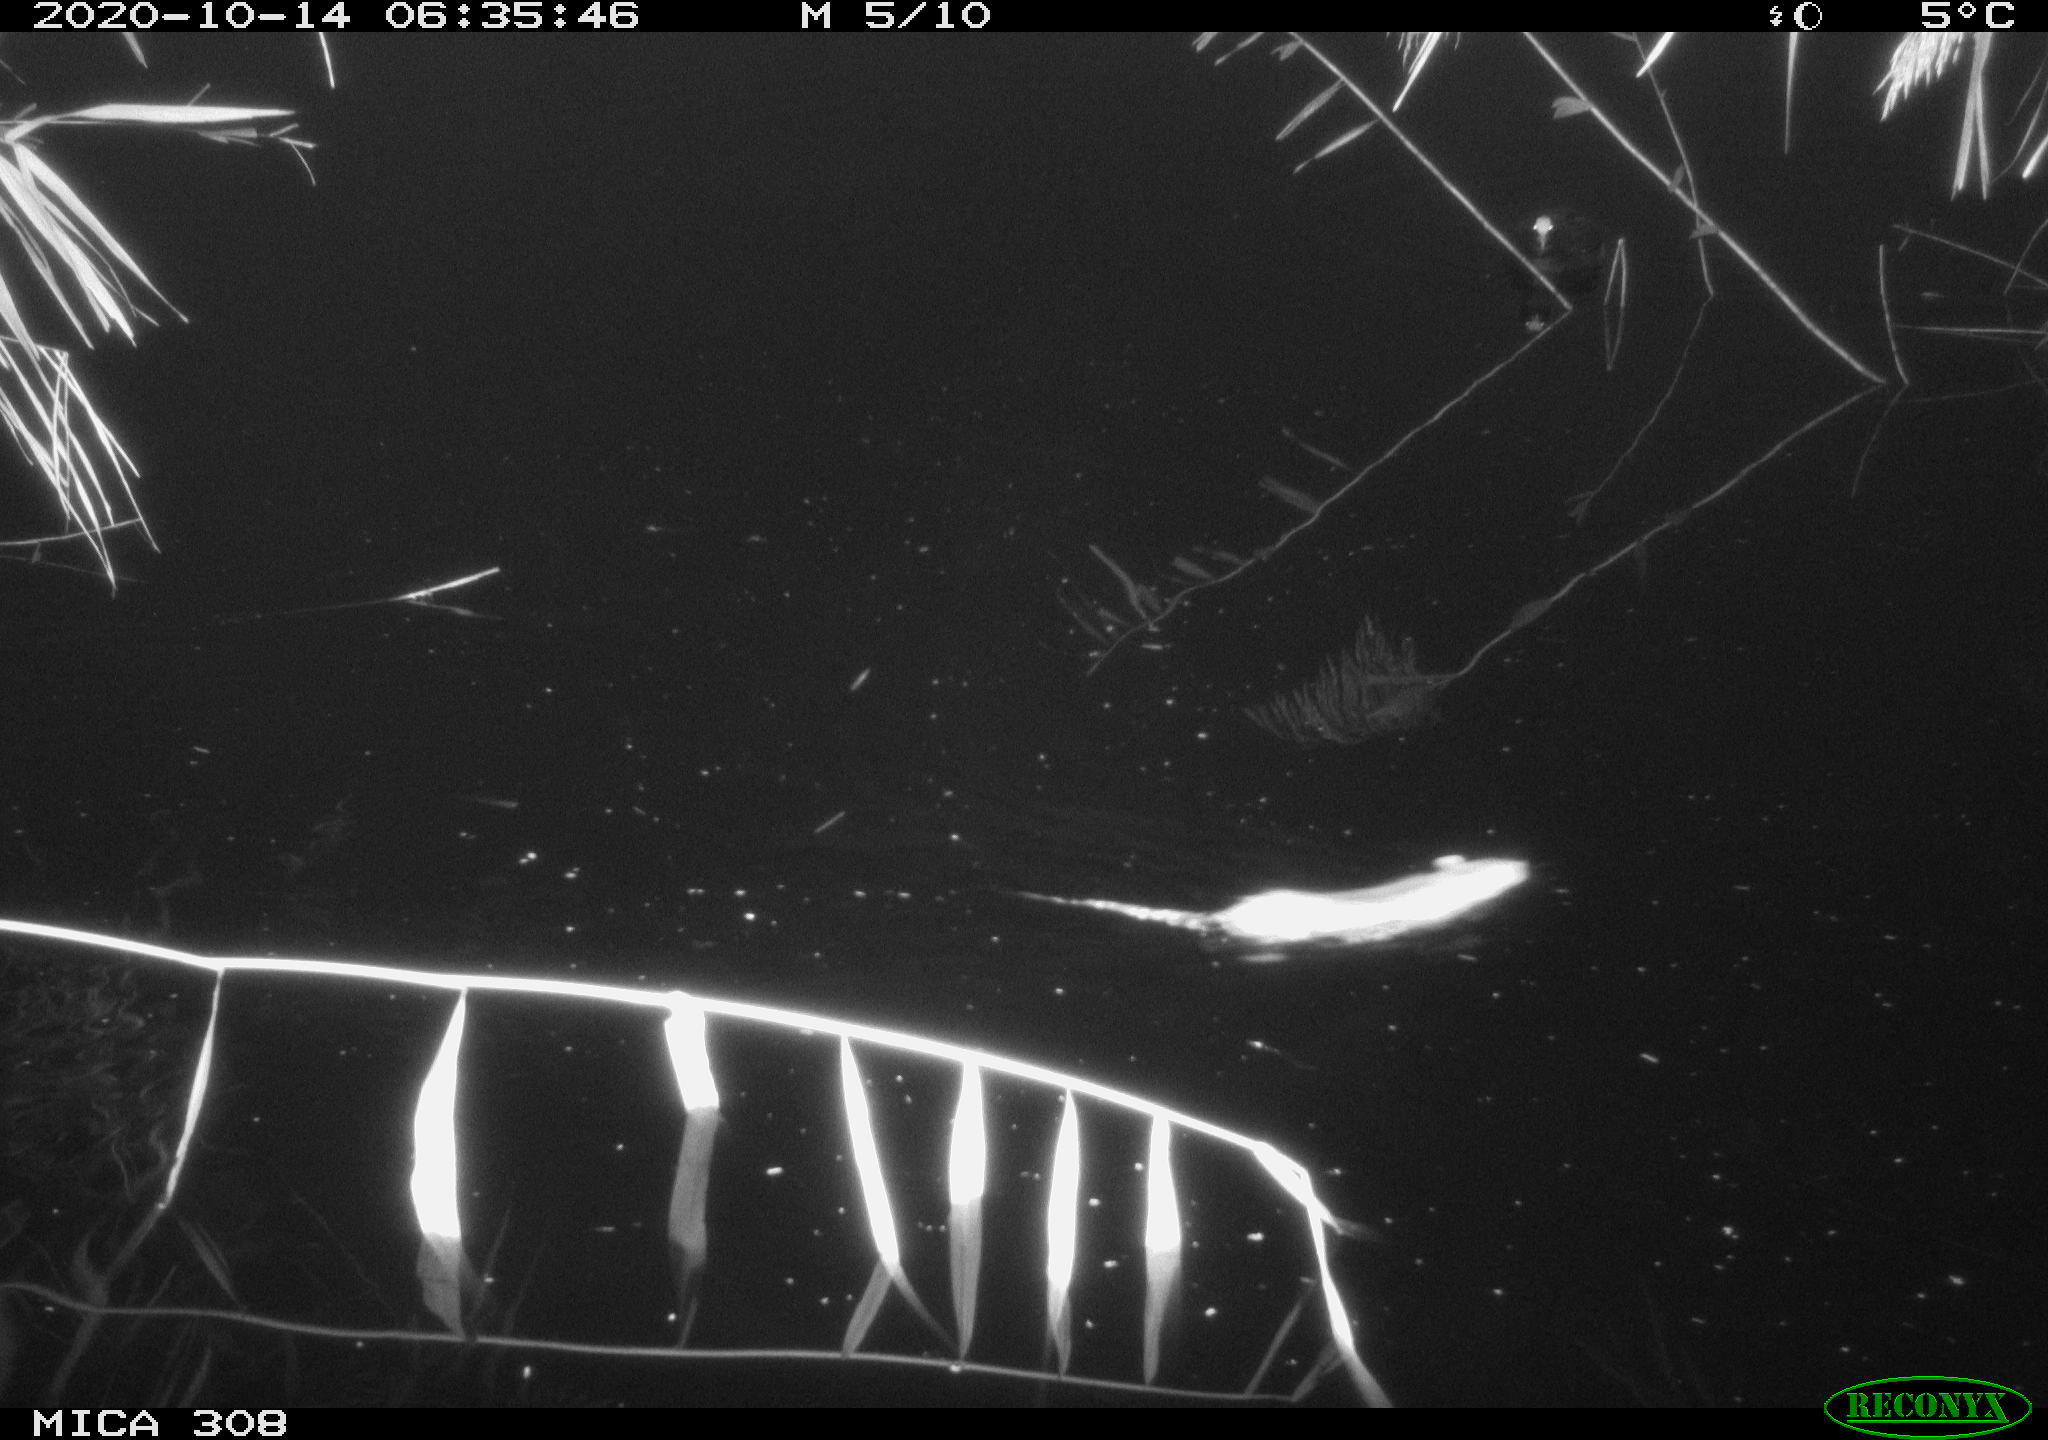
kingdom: Animalia
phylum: Chordata
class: Mammalia
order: Rodentia
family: Muridae
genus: Rattus
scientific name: Rattus norvegicus
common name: Brown rat
